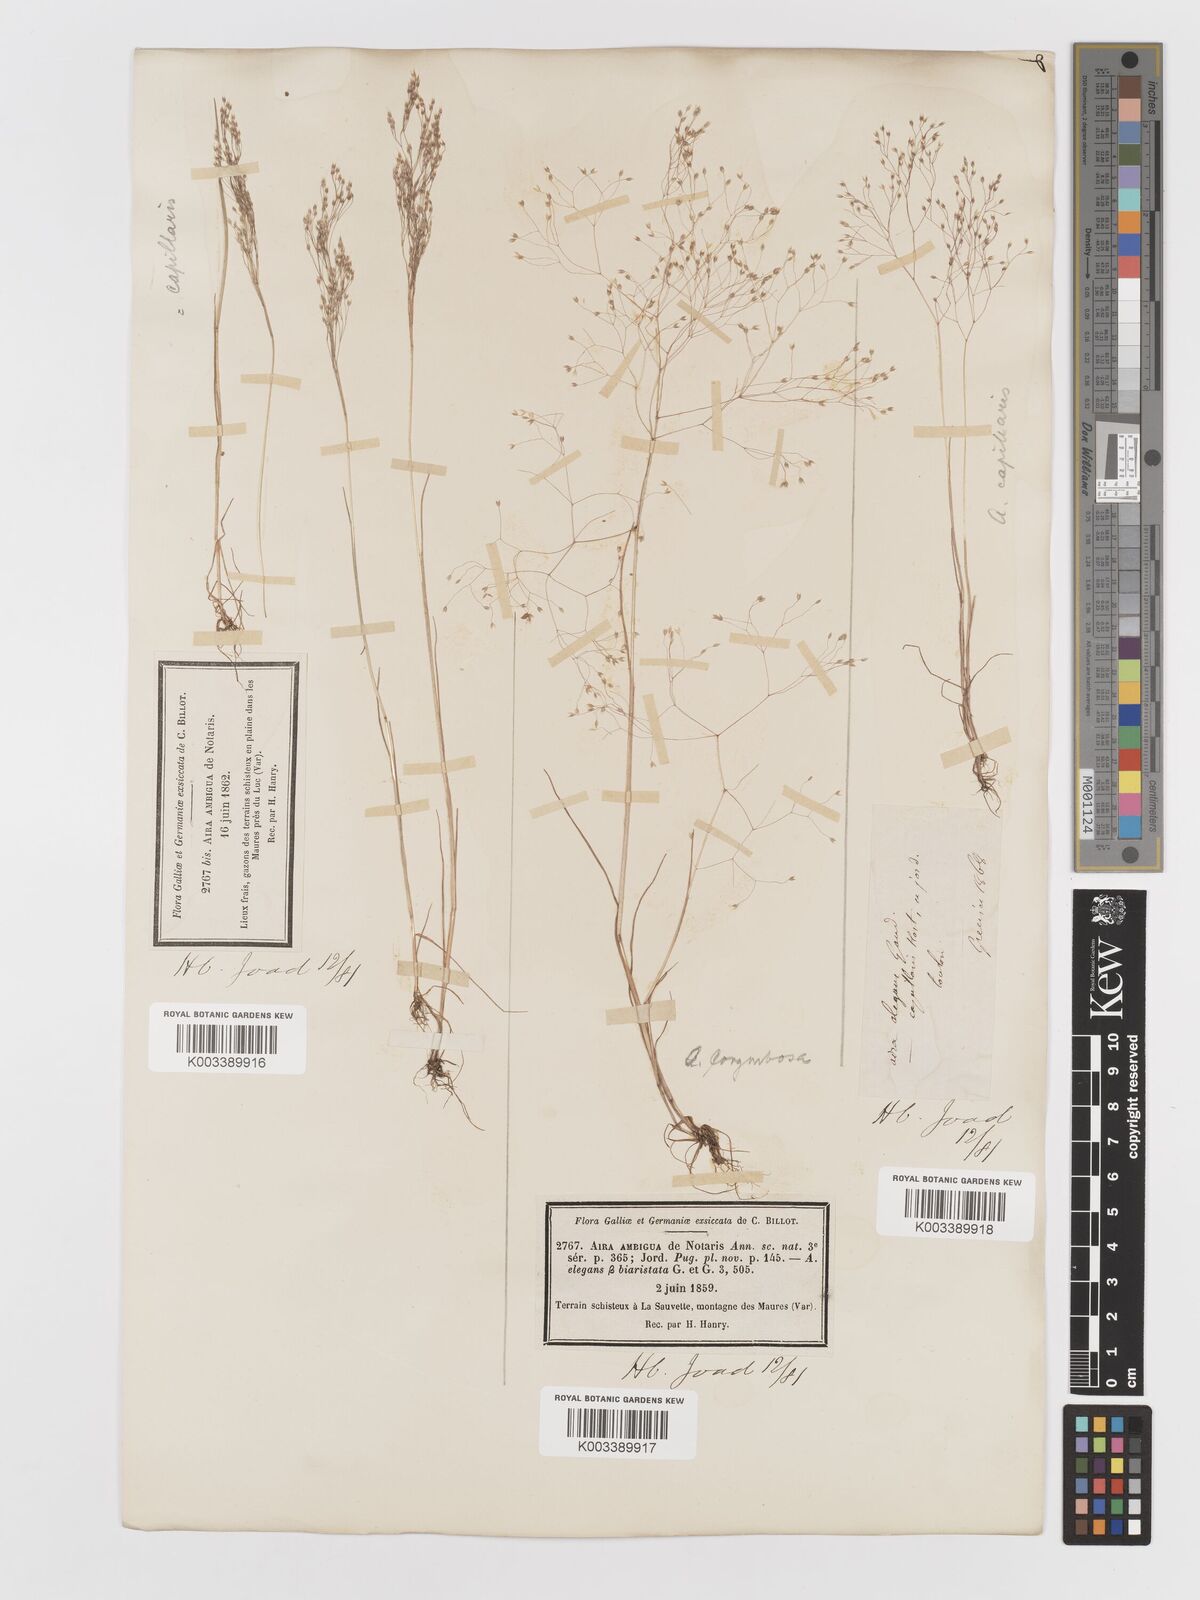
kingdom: Plantae
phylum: Tracheophyta
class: Liliopsida
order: Poales
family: Poaceae
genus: Aira
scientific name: Aira
